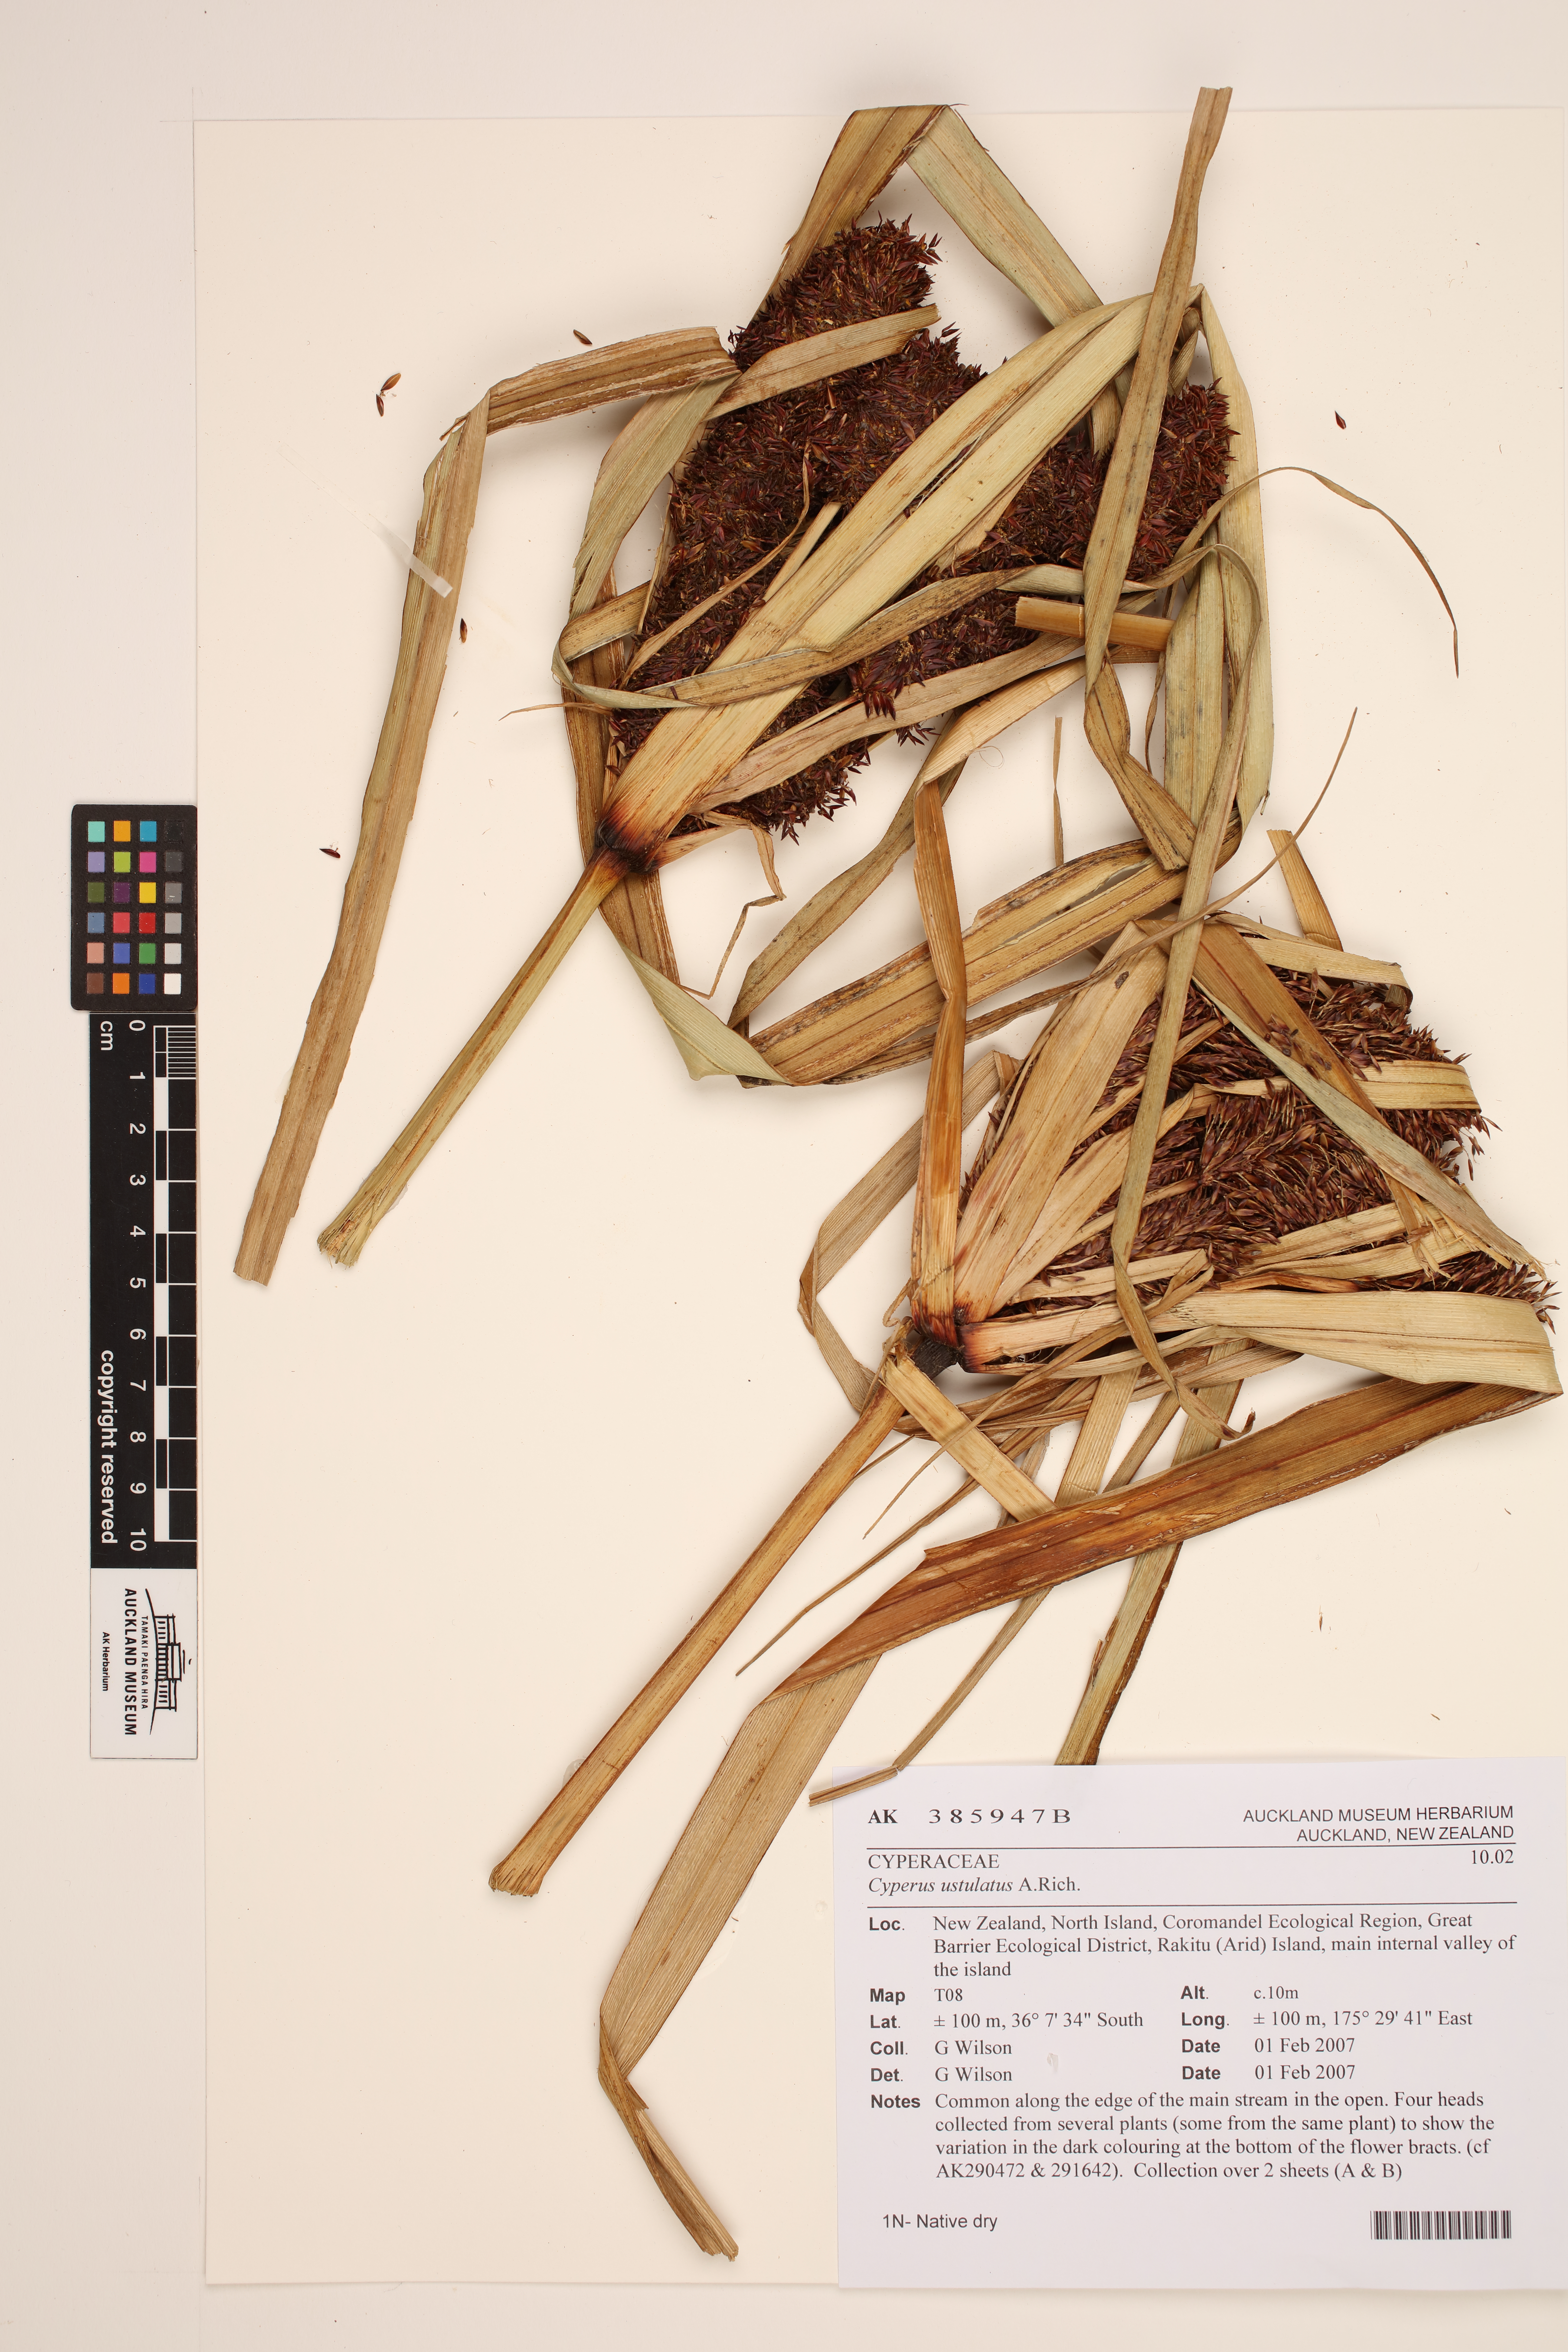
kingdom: Plantae
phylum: Tracheophyta
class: Liliopsida
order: Poales
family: Cyperaceae
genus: Cyperus
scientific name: Cyperus ustulatus
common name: Giant umbrella-sedge
